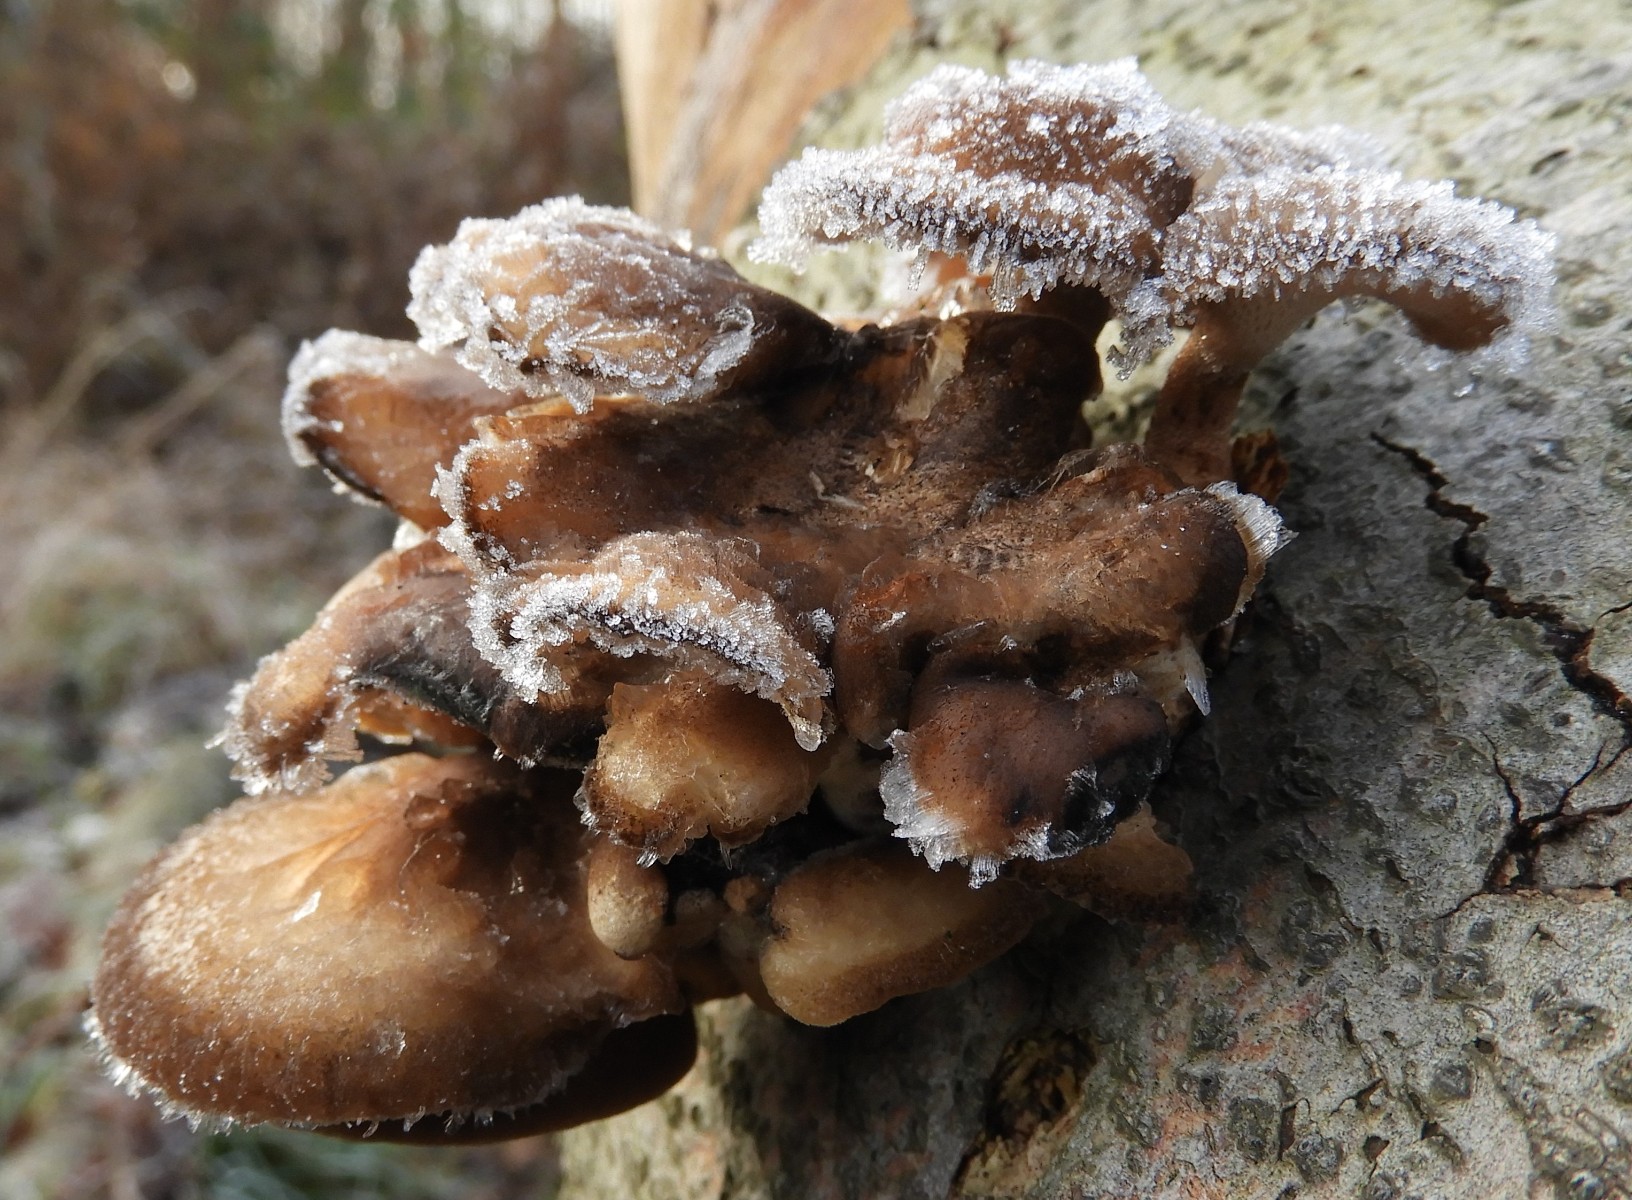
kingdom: Fungi
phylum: Basidiomycota
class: Agaricomycetes
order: Polyporales
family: Polyporaceae
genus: Lentinus
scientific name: Lentinus brumalis
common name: vinter-stilkporesvamp
